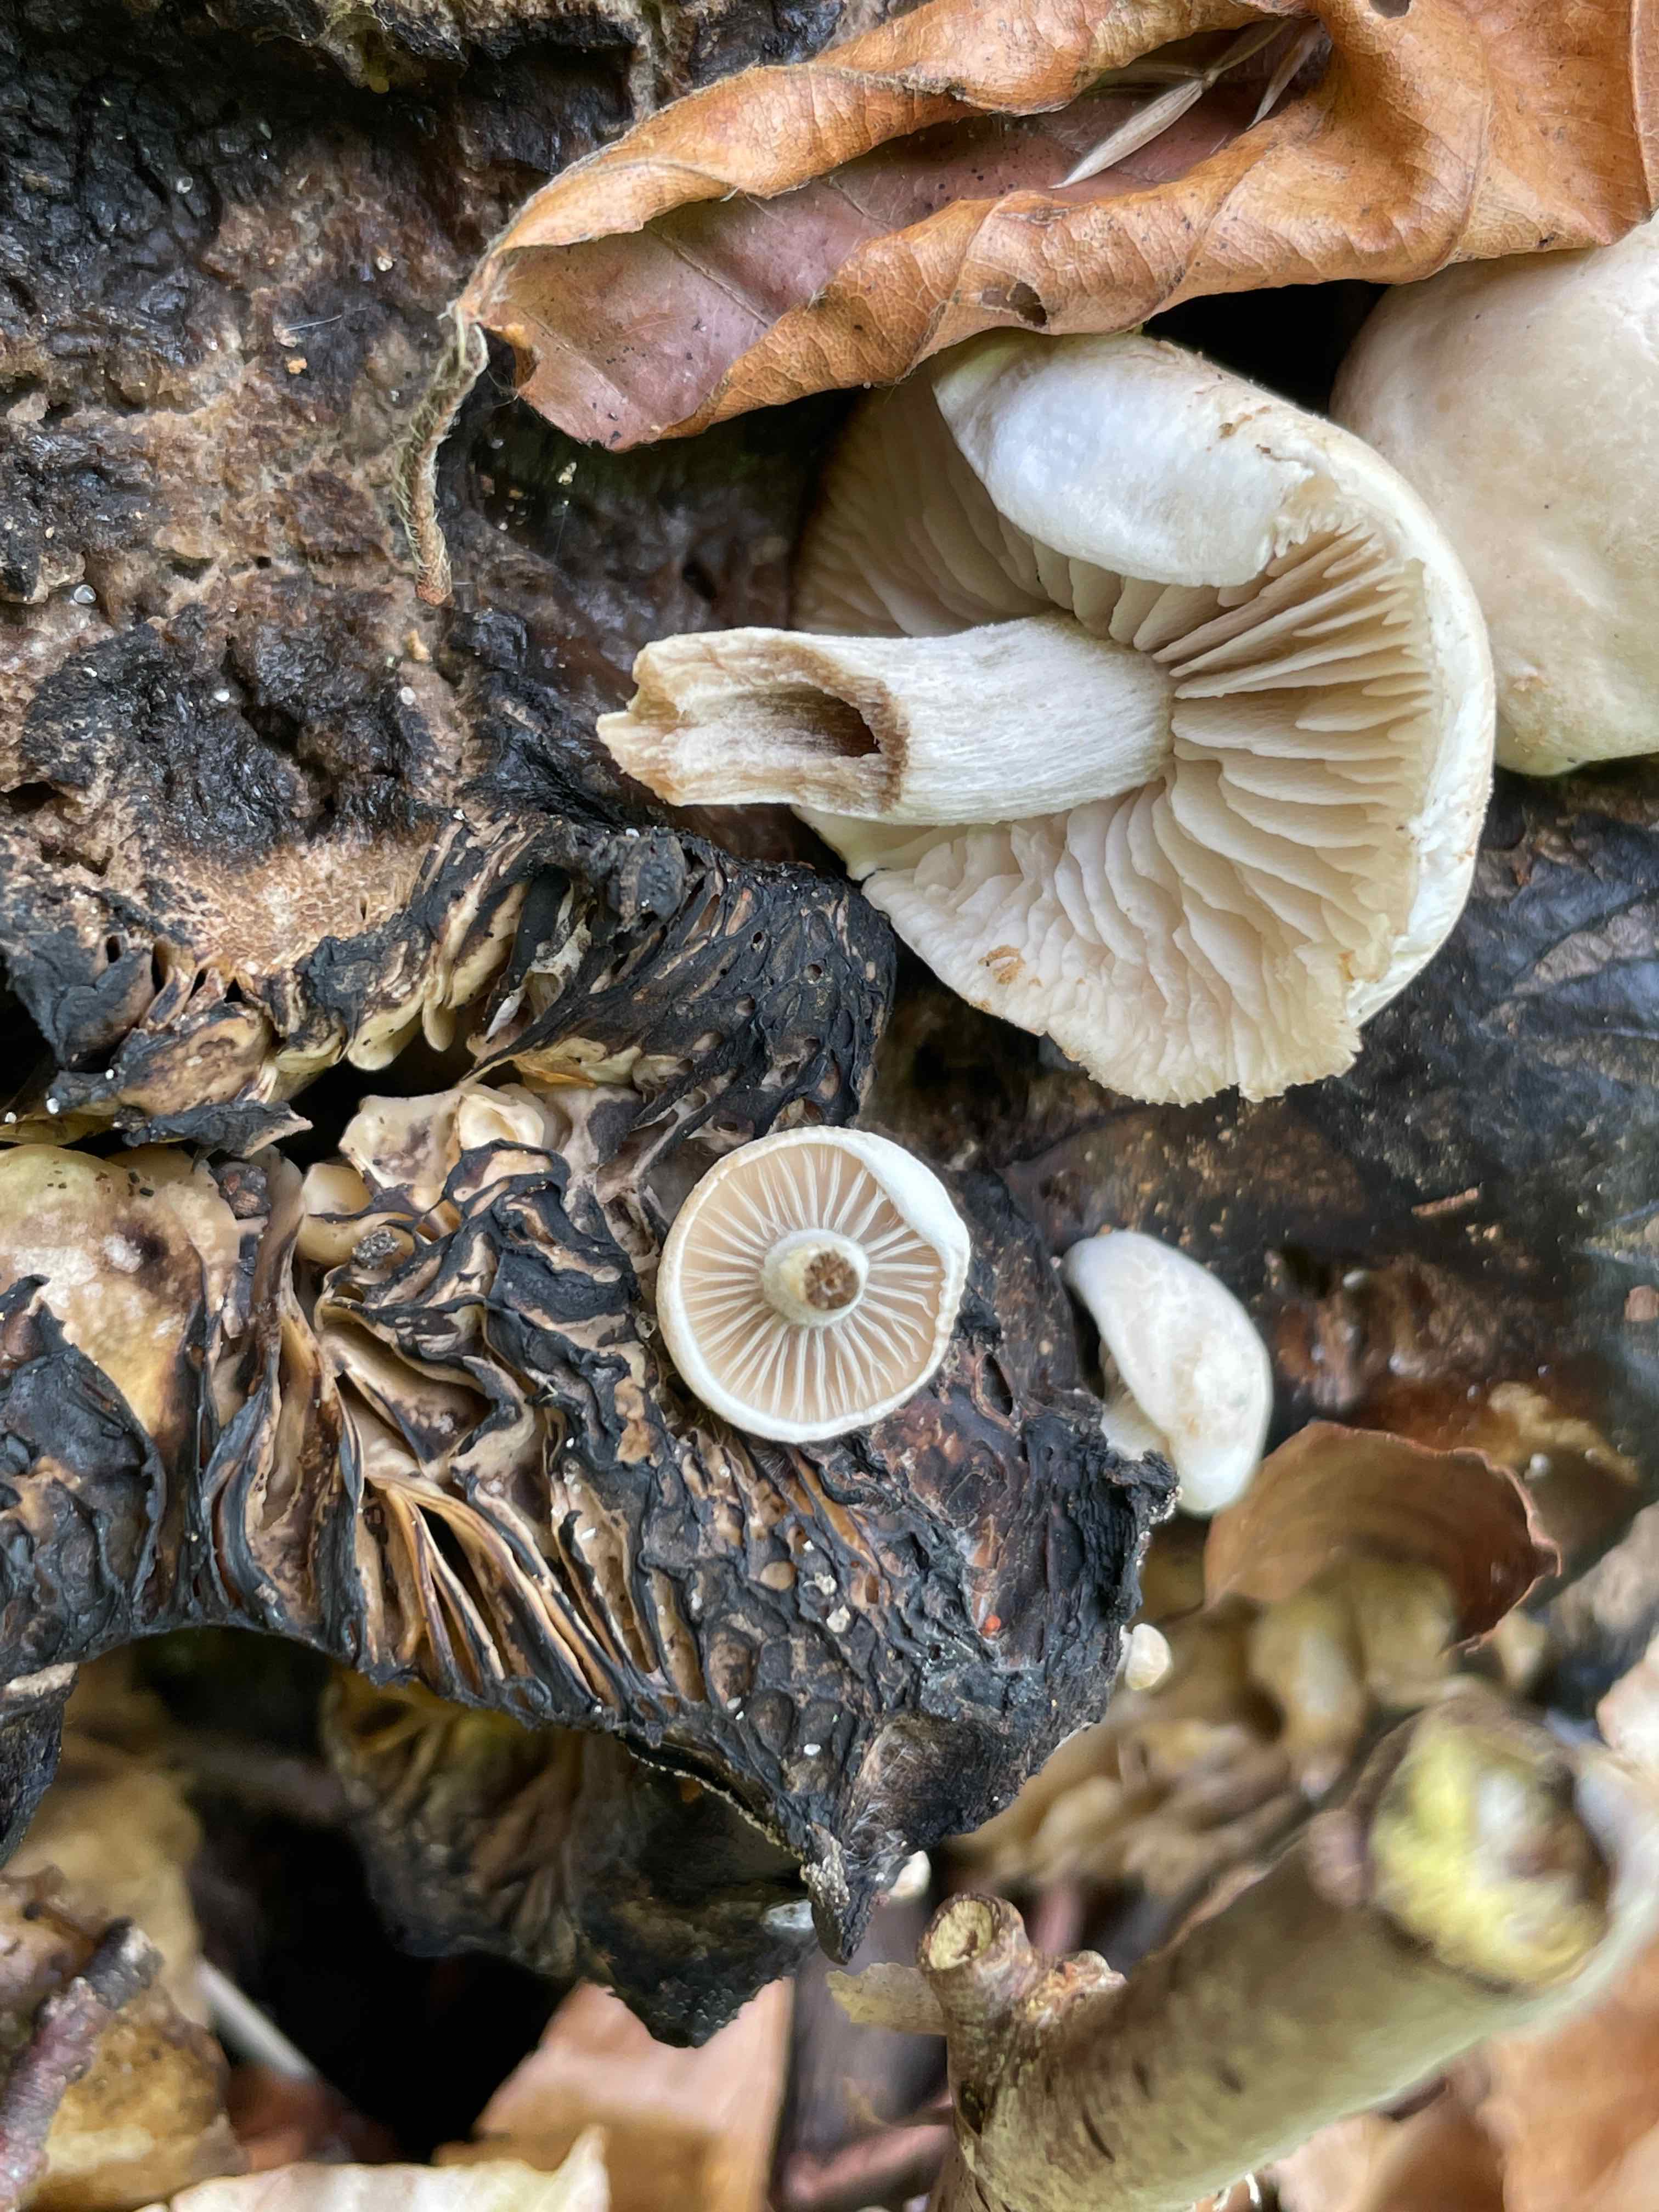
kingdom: Fungi
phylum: Basidiomycota
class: Agaricomycetes
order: Agaricales
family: Lyophyllaceae
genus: Asterophora
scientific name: Asterophora parasitica
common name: grå snyltehat
